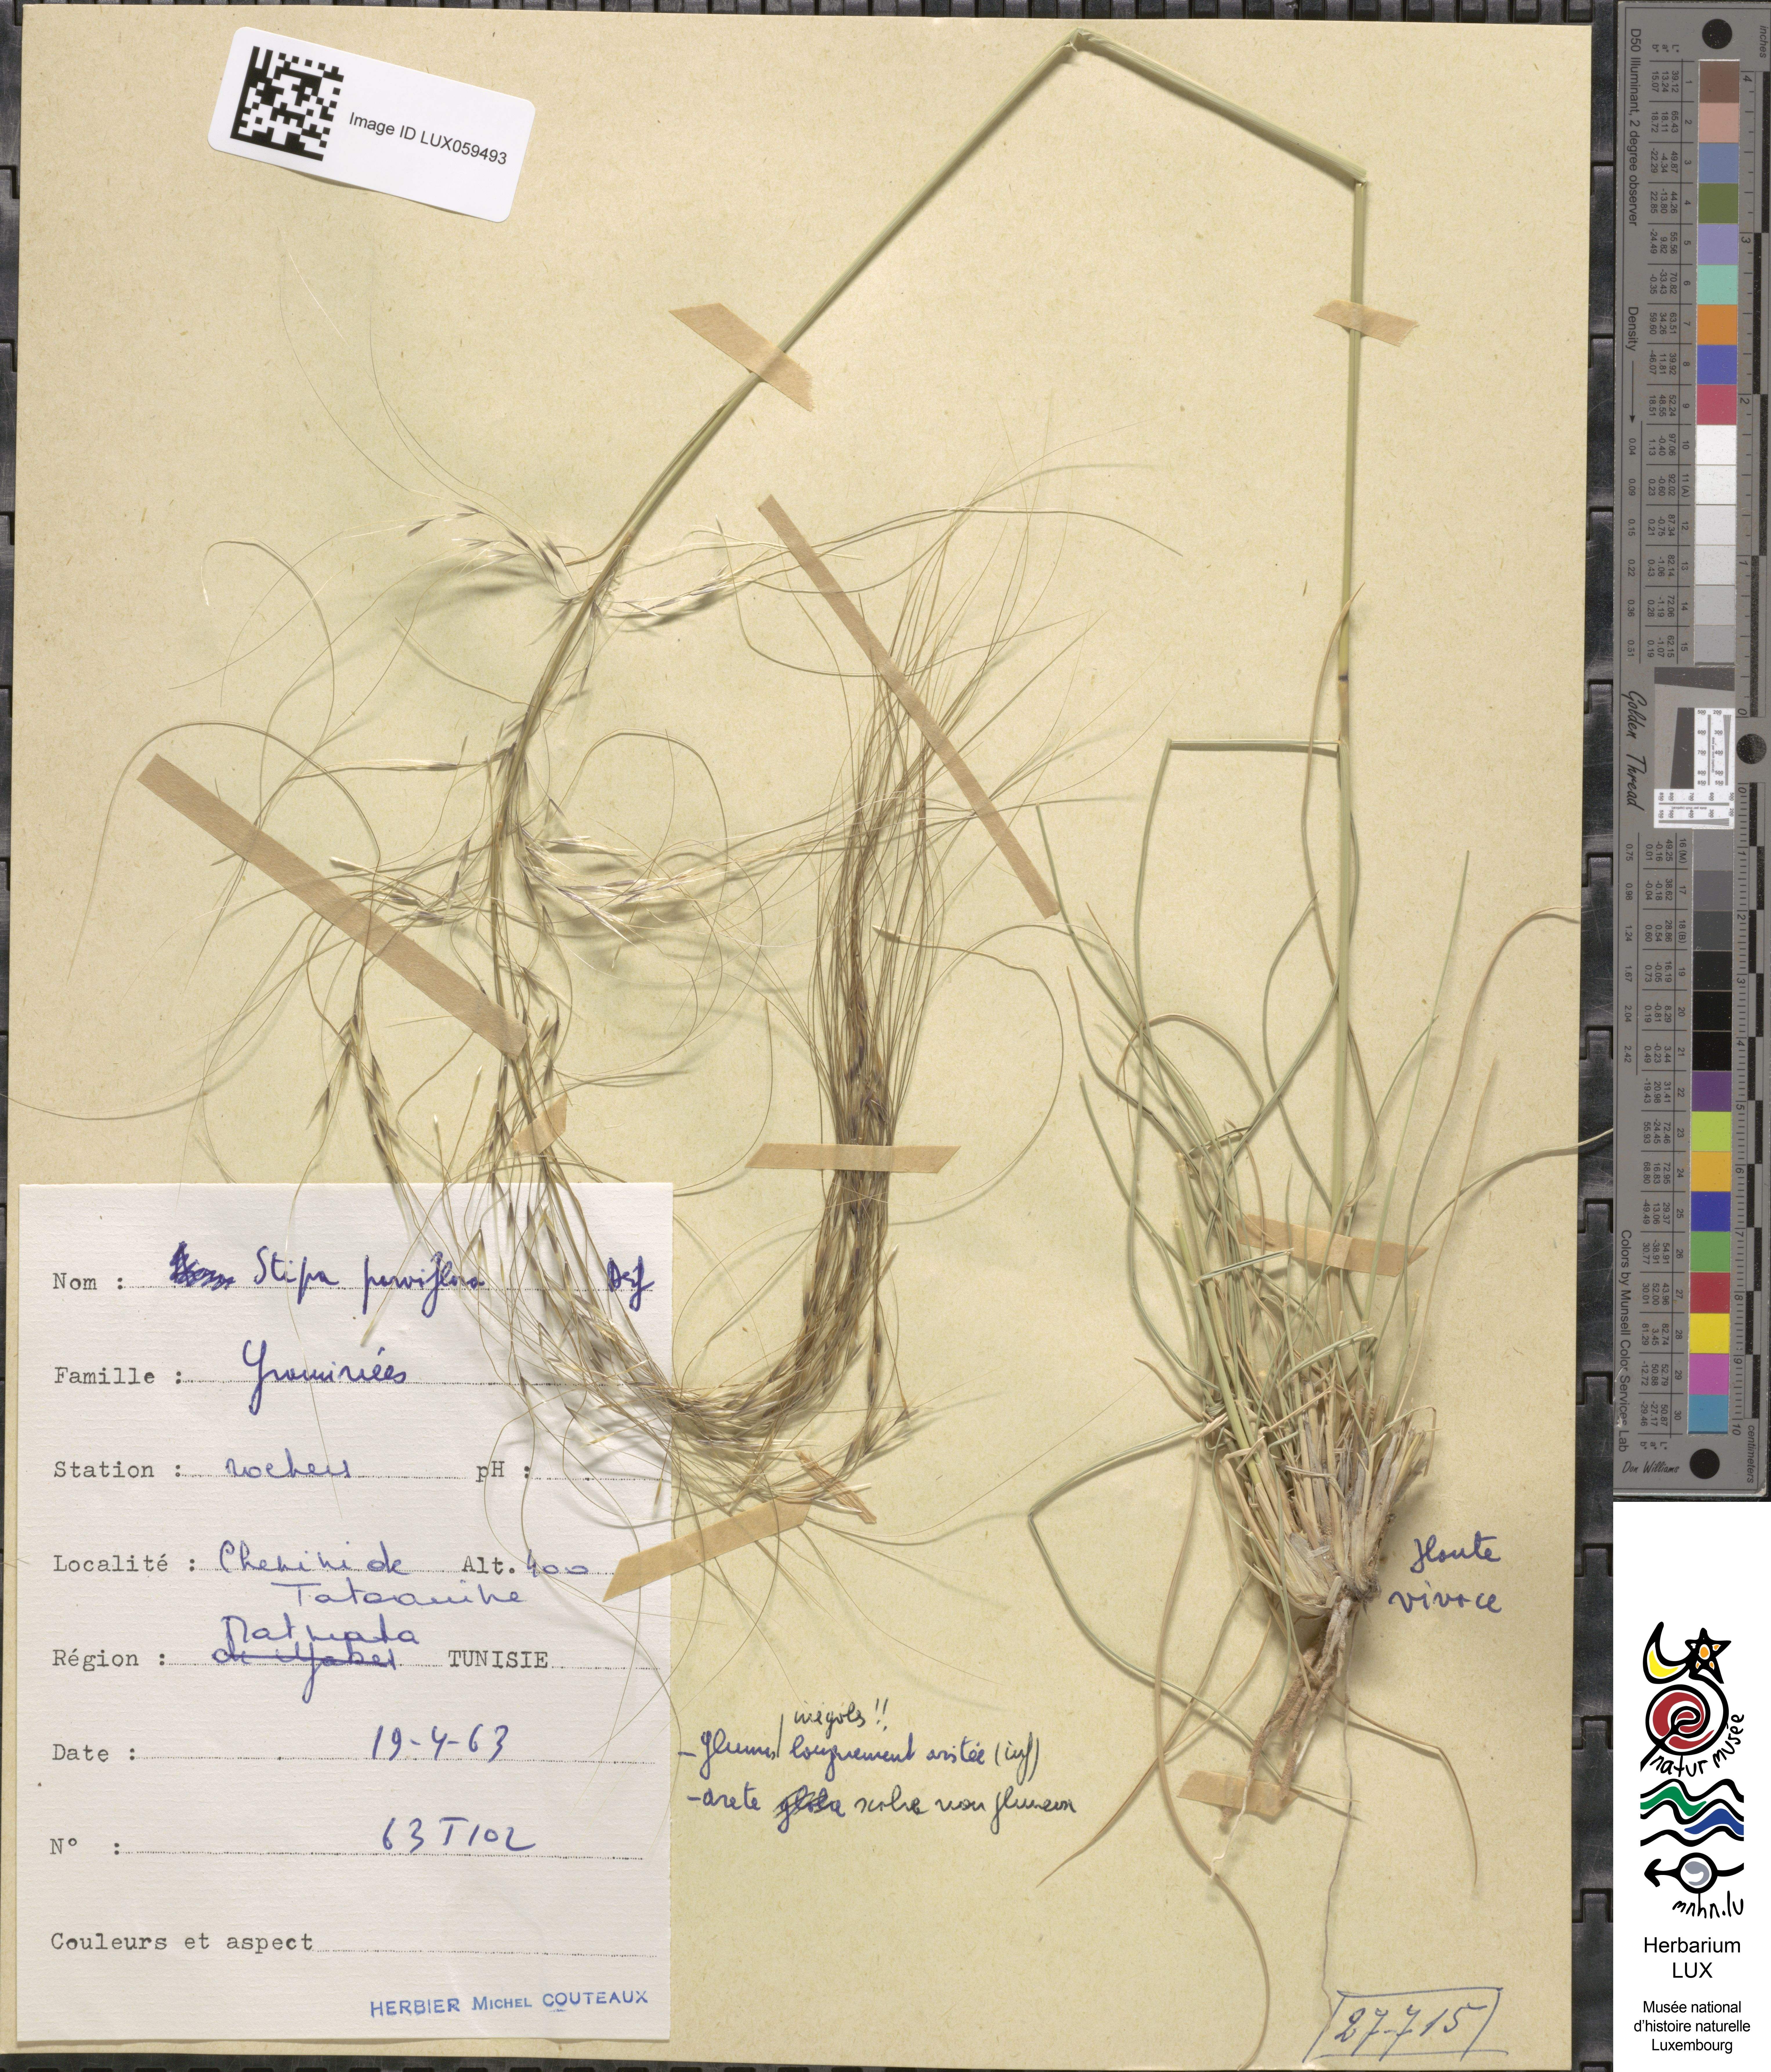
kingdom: Plantae
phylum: Tracheophyta
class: Liliopsida
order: Poales
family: Poaceae
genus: Achnatherum
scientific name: Achnatherum parviflorum
